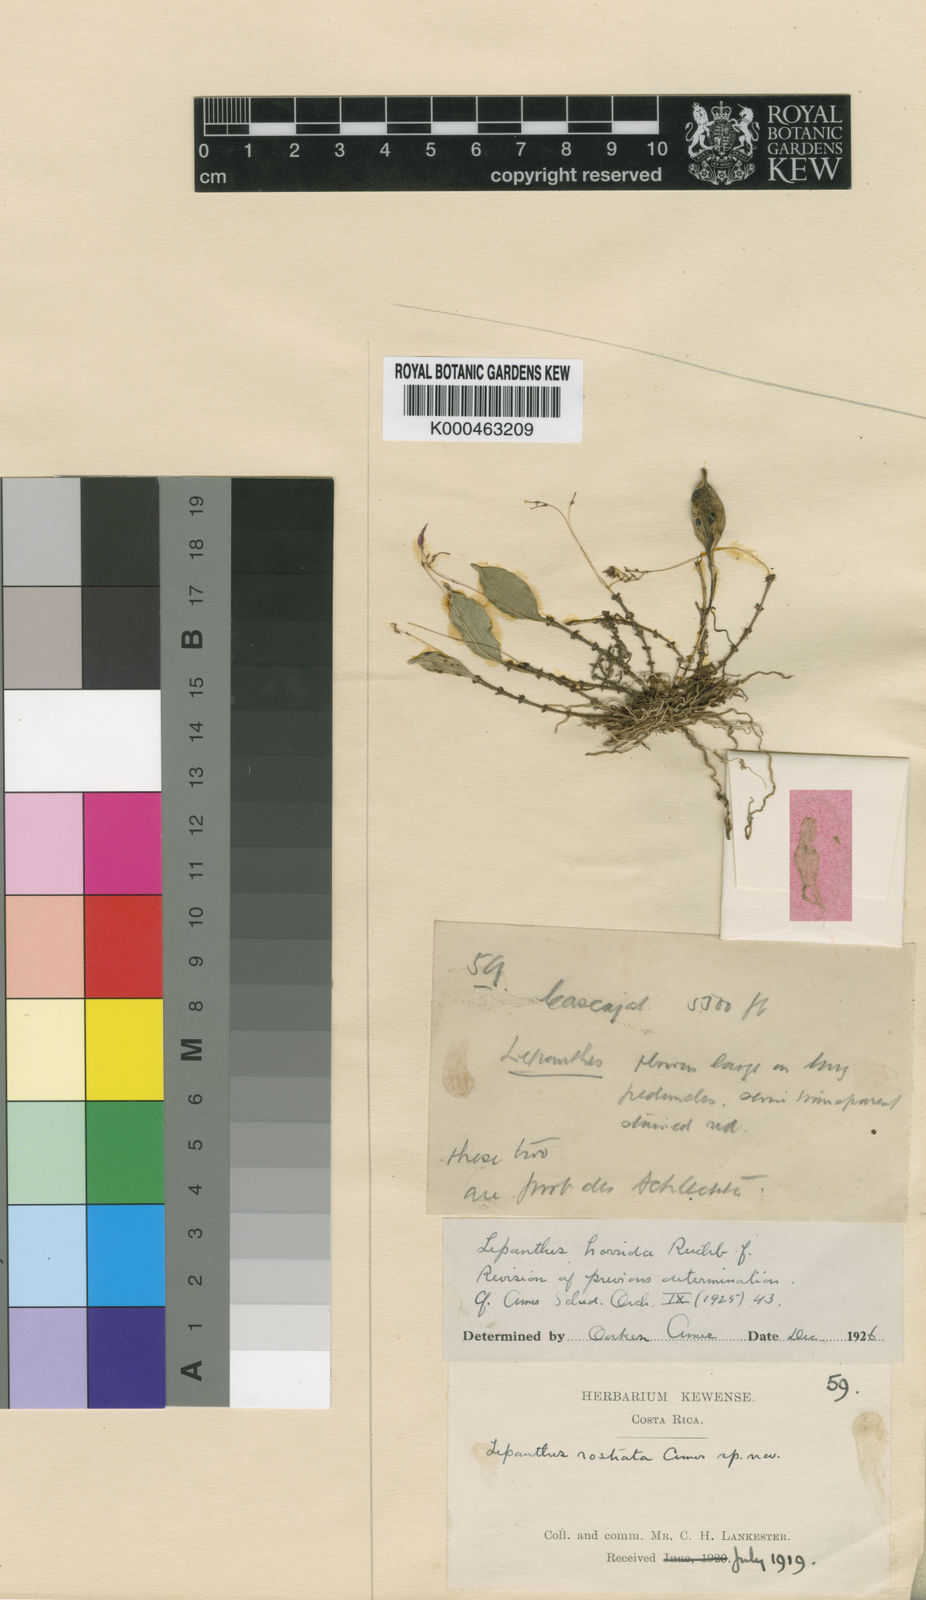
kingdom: Plantae
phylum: Tracheophyta
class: Liliopsida
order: Asparagales
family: Orchidaceae
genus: Lepanthes
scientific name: Lepanthes horrida
